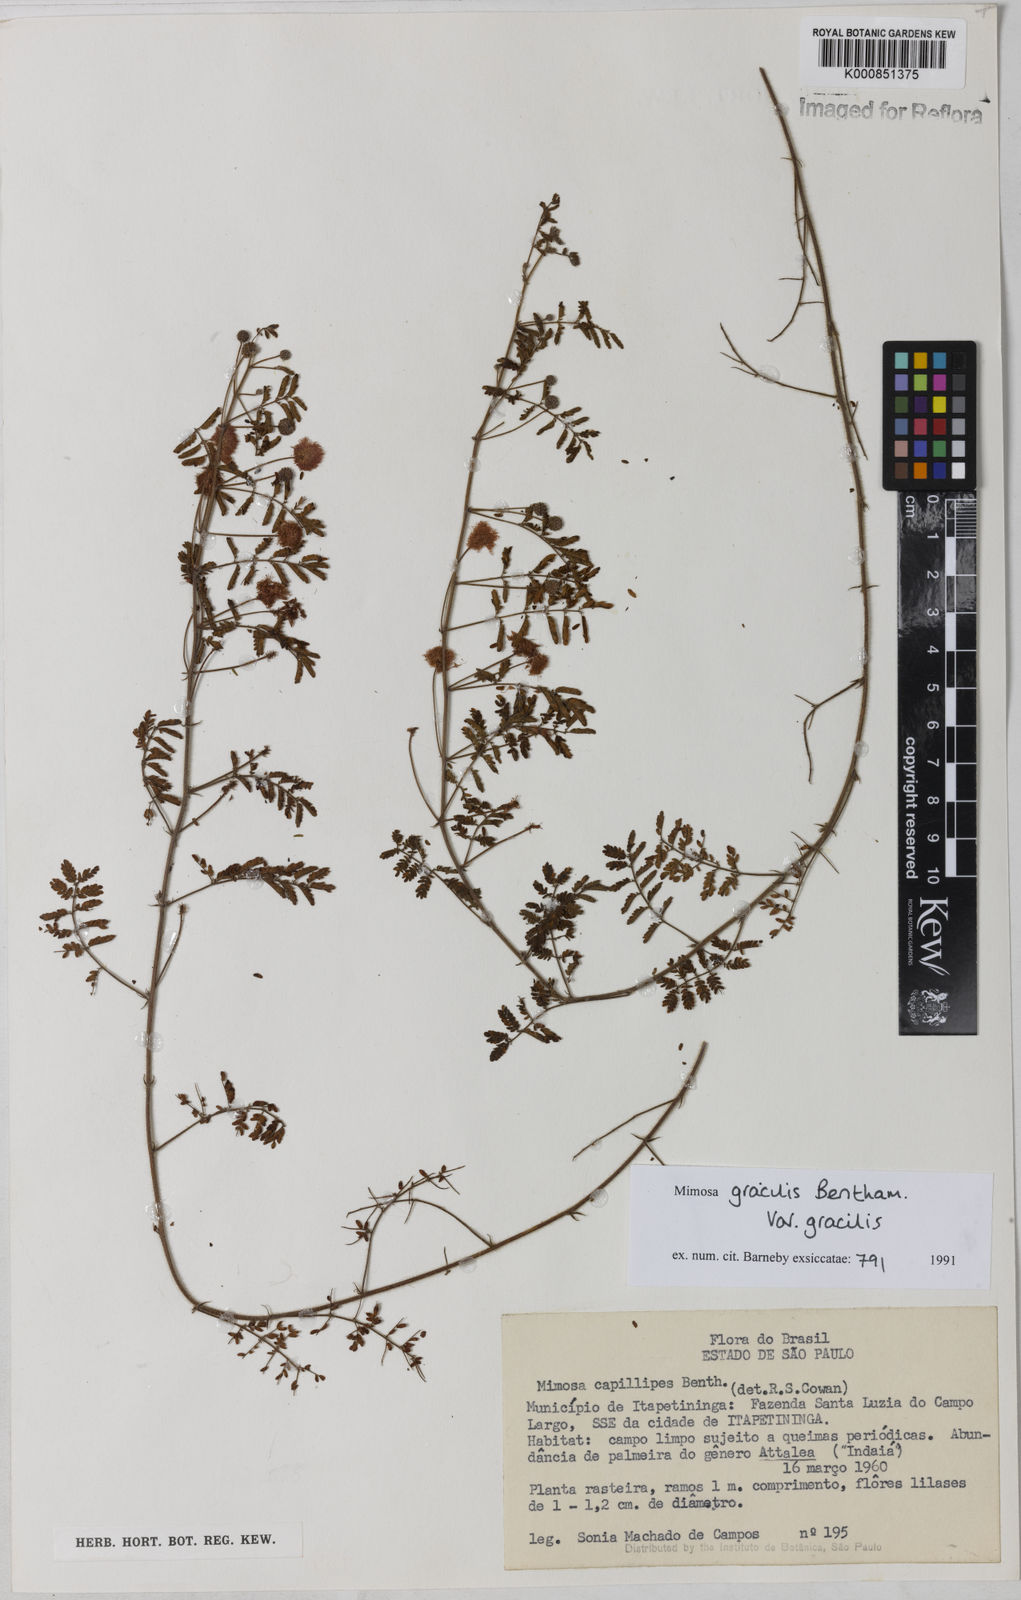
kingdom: Plantae
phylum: Tracheophyta
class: Magnoliopsida
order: Fabales
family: Fabaceae
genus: Mimosa
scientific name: Mimosa gracilis
